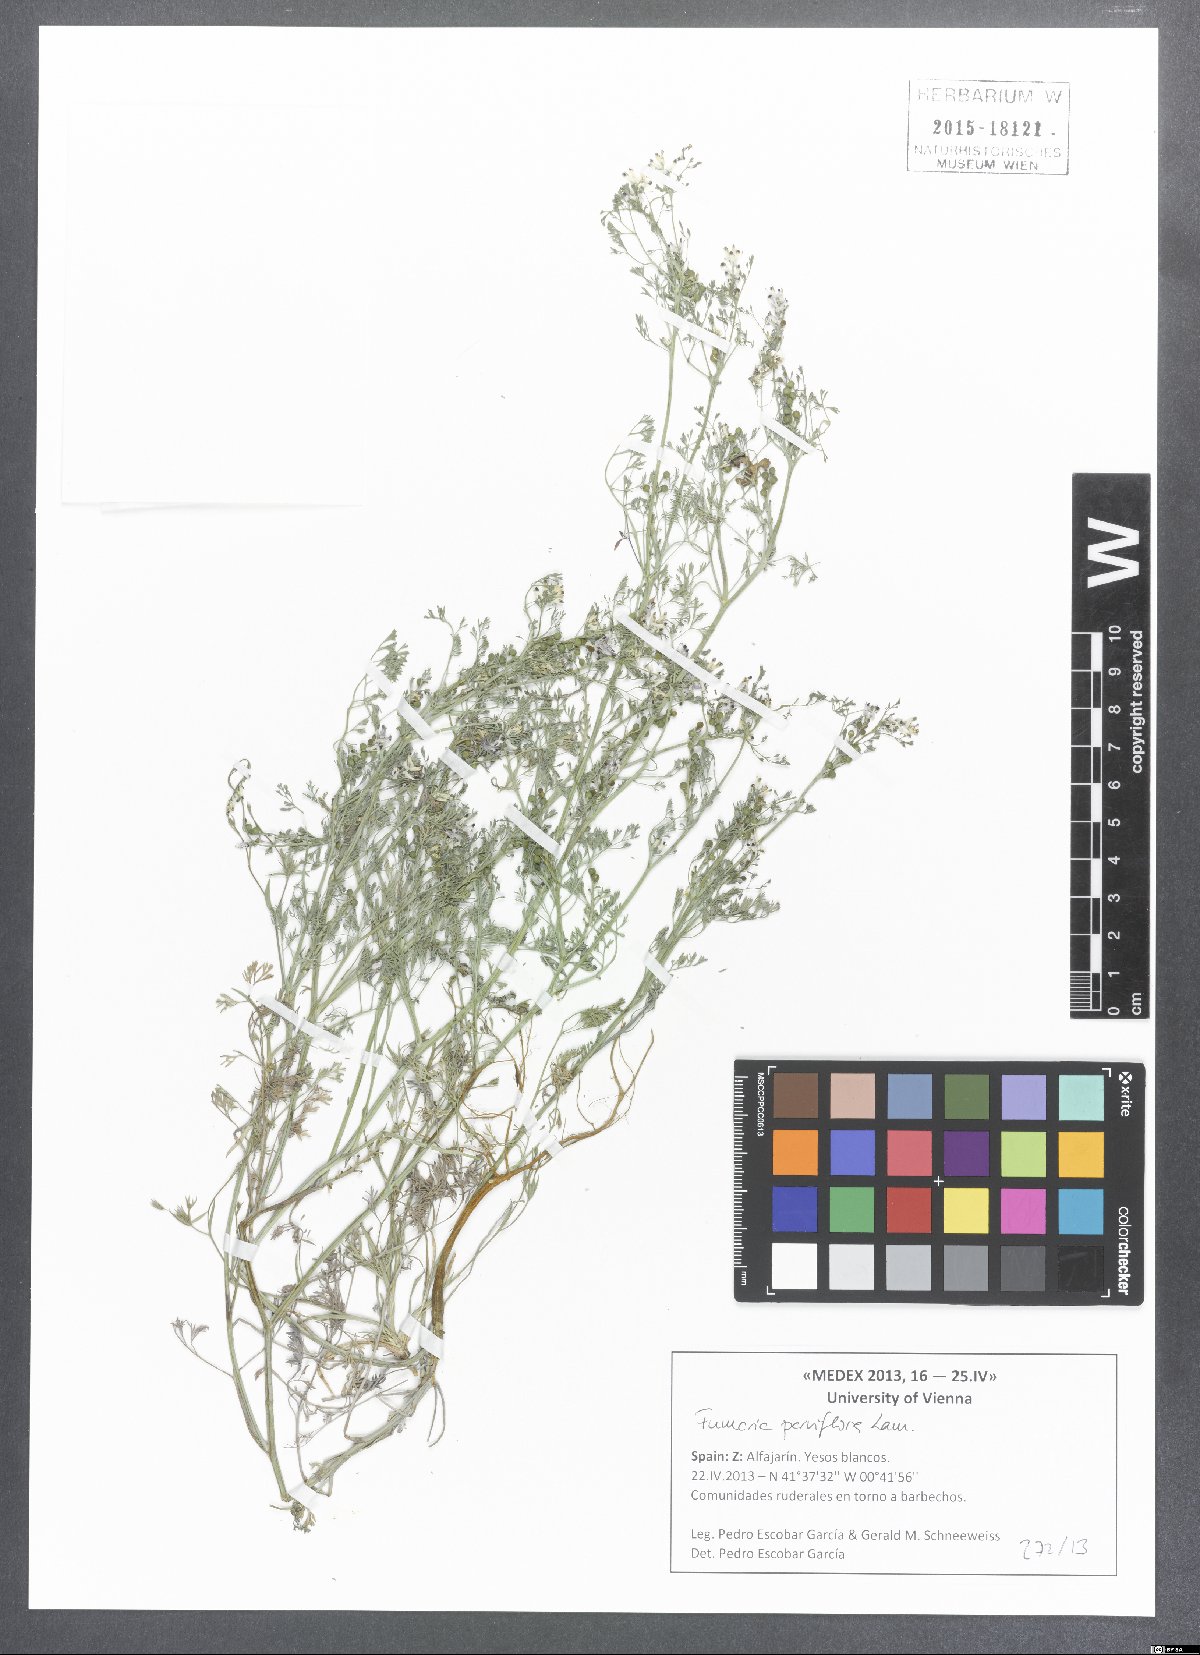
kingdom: Plantae
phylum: Tracheophyta
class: Magnoliopsida
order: Ranunculales
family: Papaveraceae
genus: Fumaria
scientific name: Fumaria parviflora
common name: Fine-leaved fumitory
